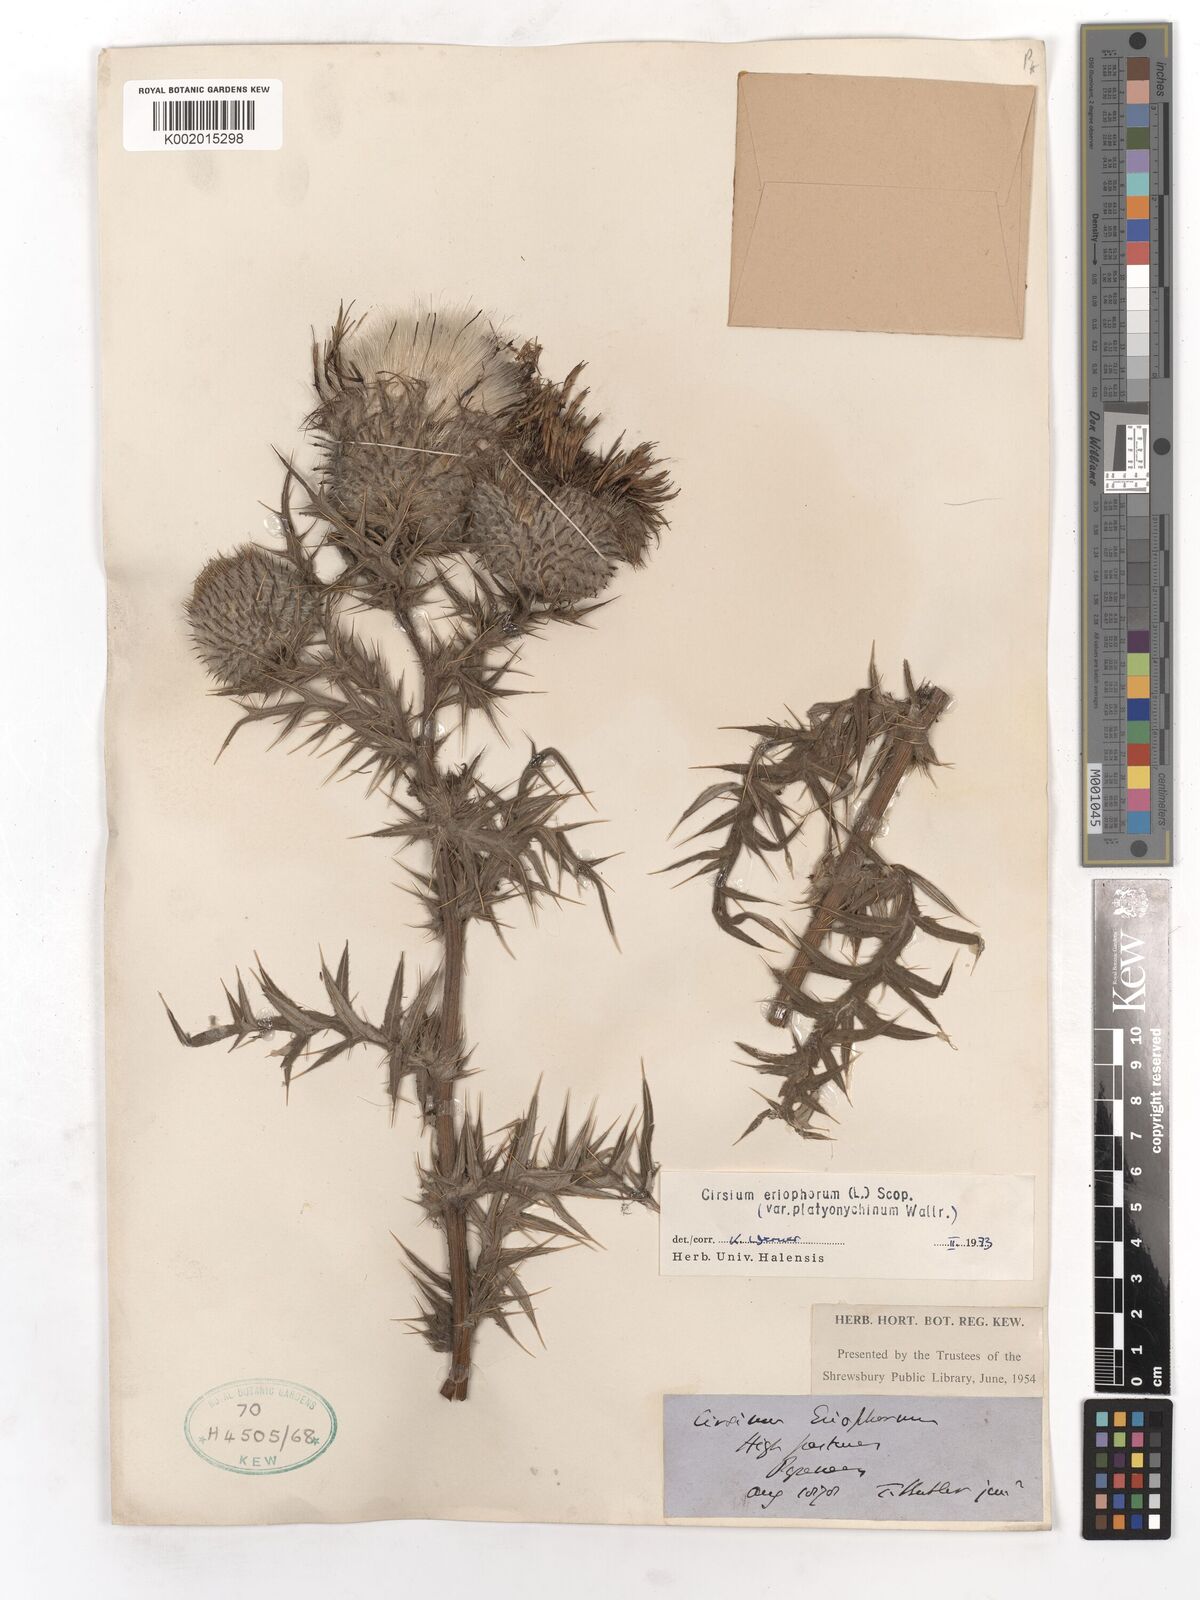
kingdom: Plantae
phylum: Tracheophyta
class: Magnoliopsida
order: Asterales
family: Asteraceae
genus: Lophiolepis
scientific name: Lophiolepis eriophora
